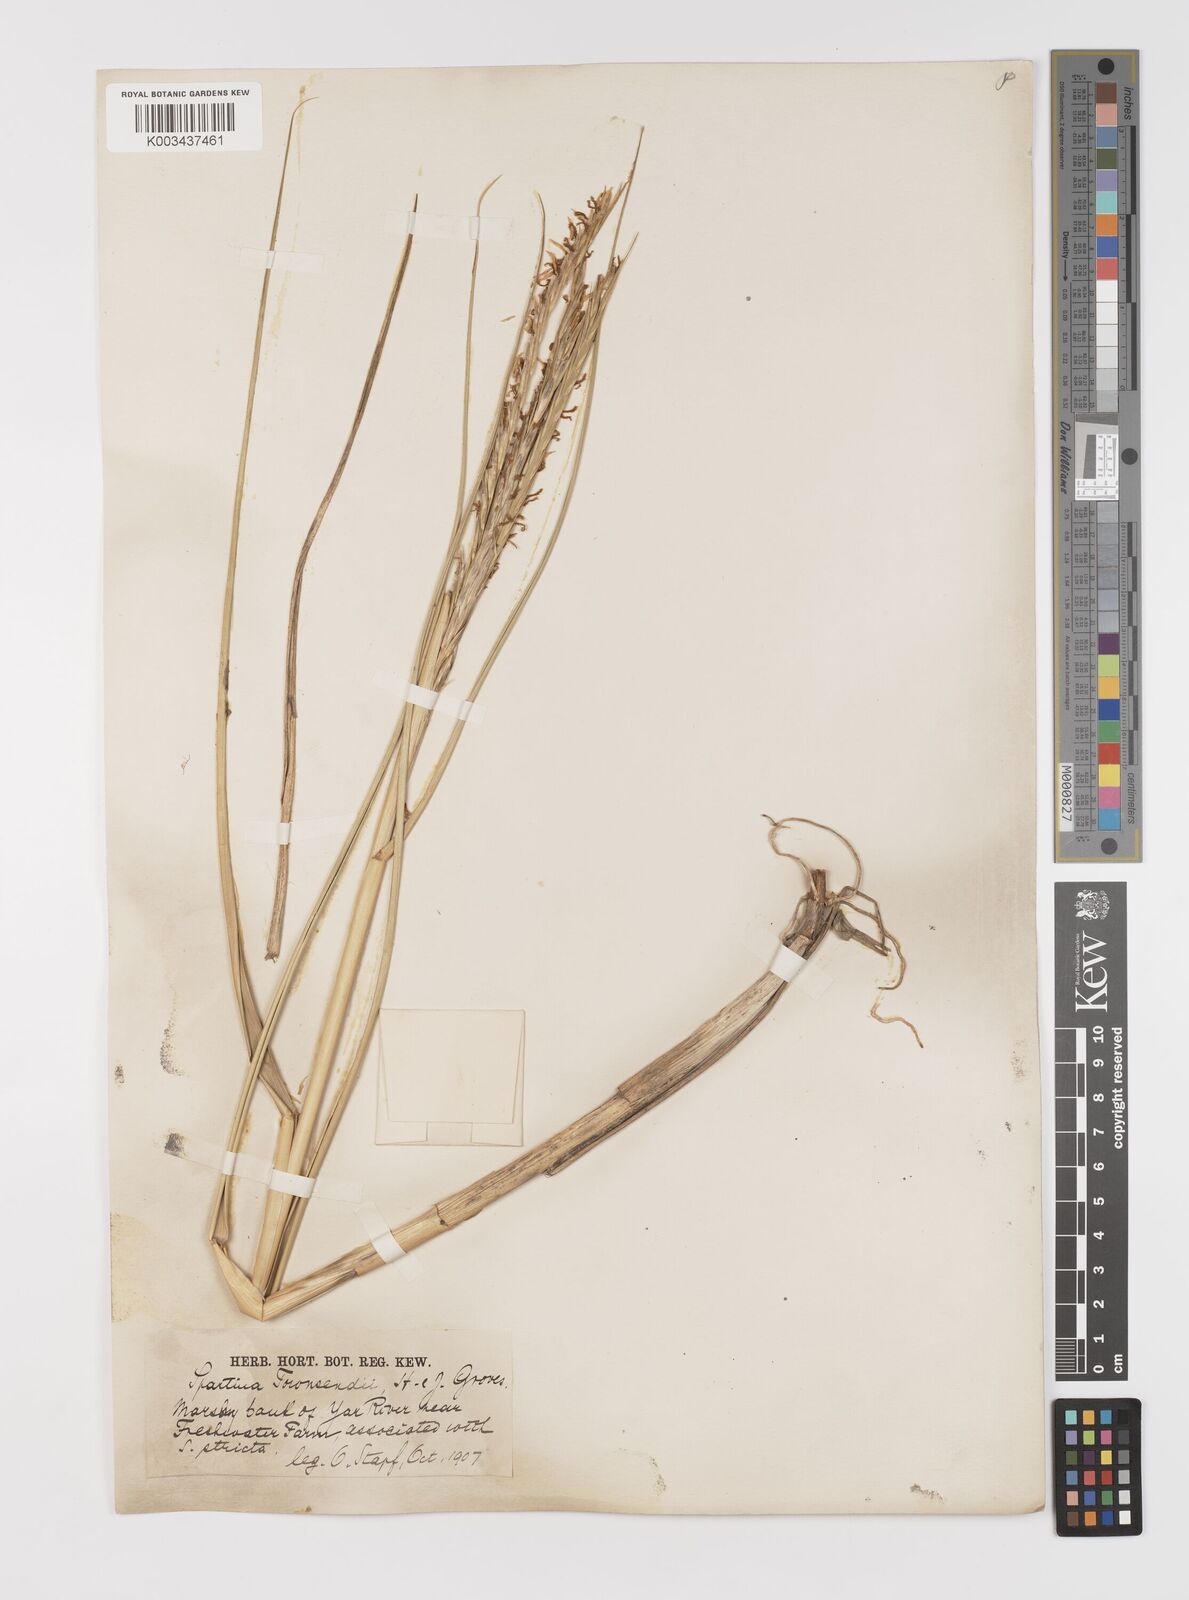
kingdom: Plantae
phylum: Tracheophyta
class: Liliopsida
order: Poales
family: Poaceae
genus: Sporobolus
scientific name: Sporobolus anglicus
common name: English cordgrass
